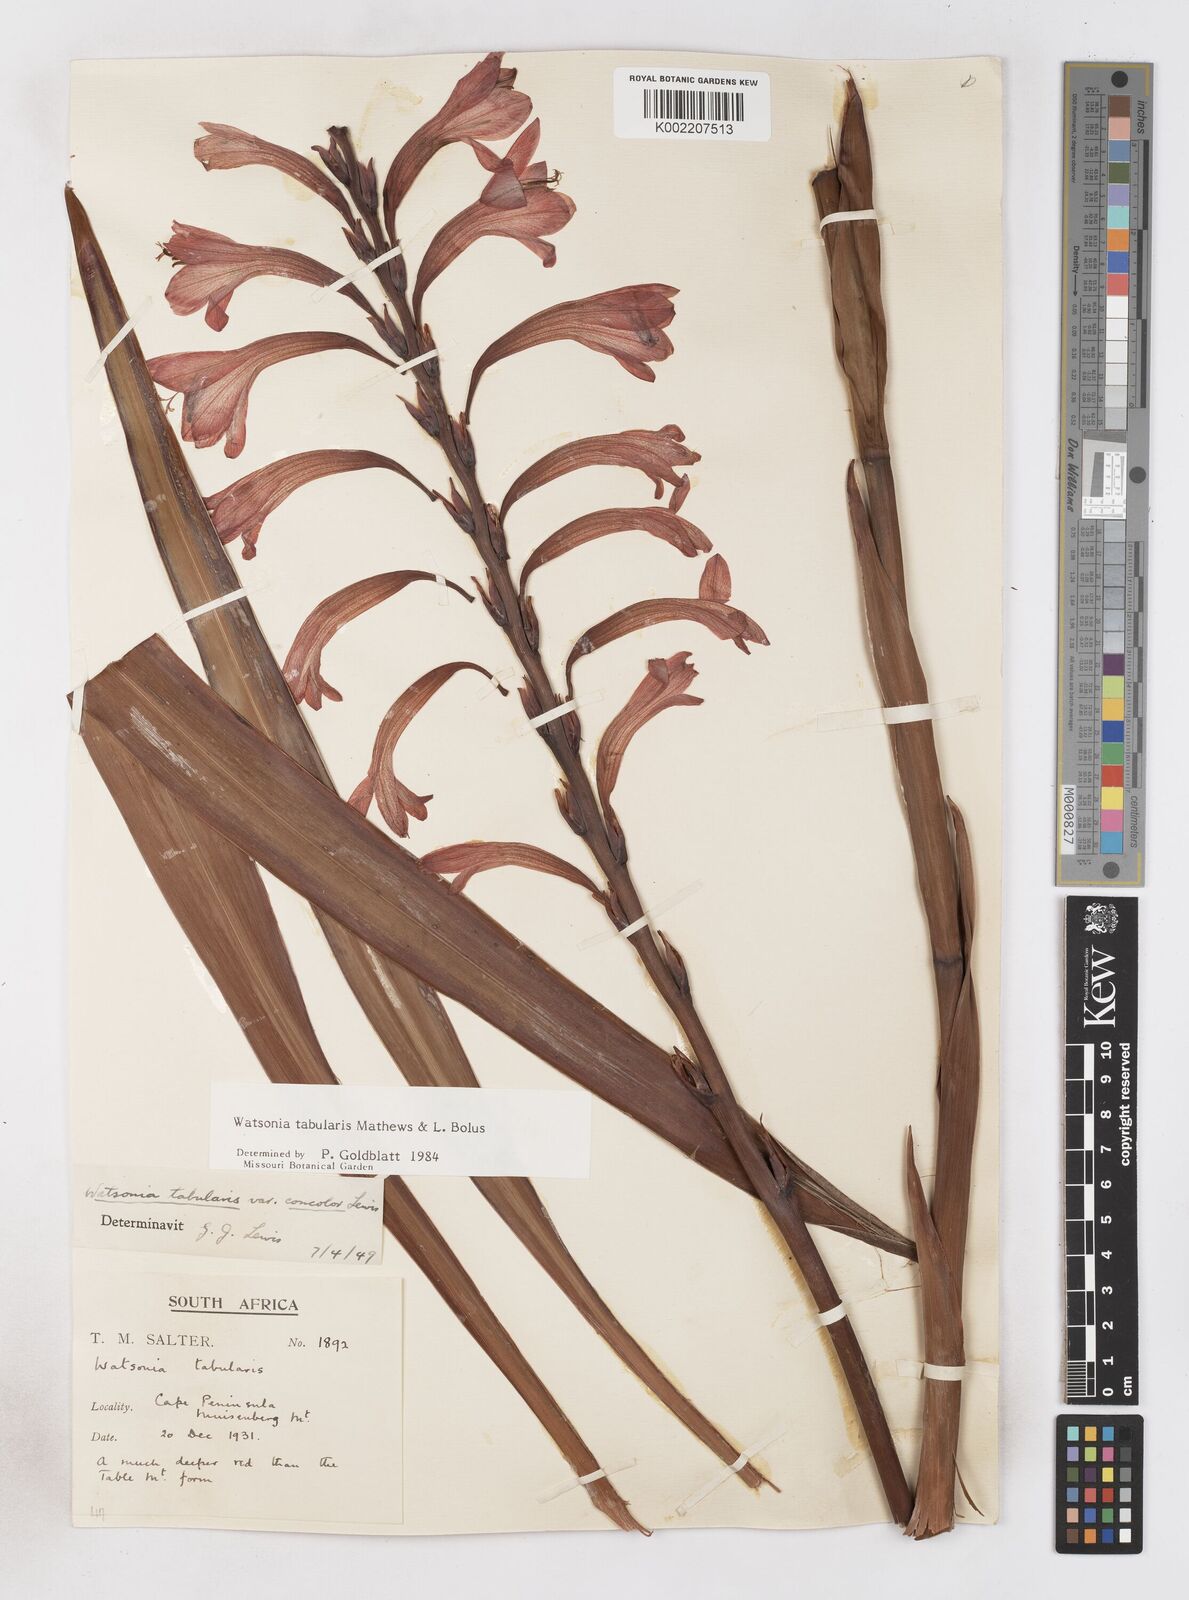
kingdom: Plantae
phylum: Tracheophyta
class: Liliopsida
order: Asparagales
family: Iridaceae
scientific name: Iridaceae
